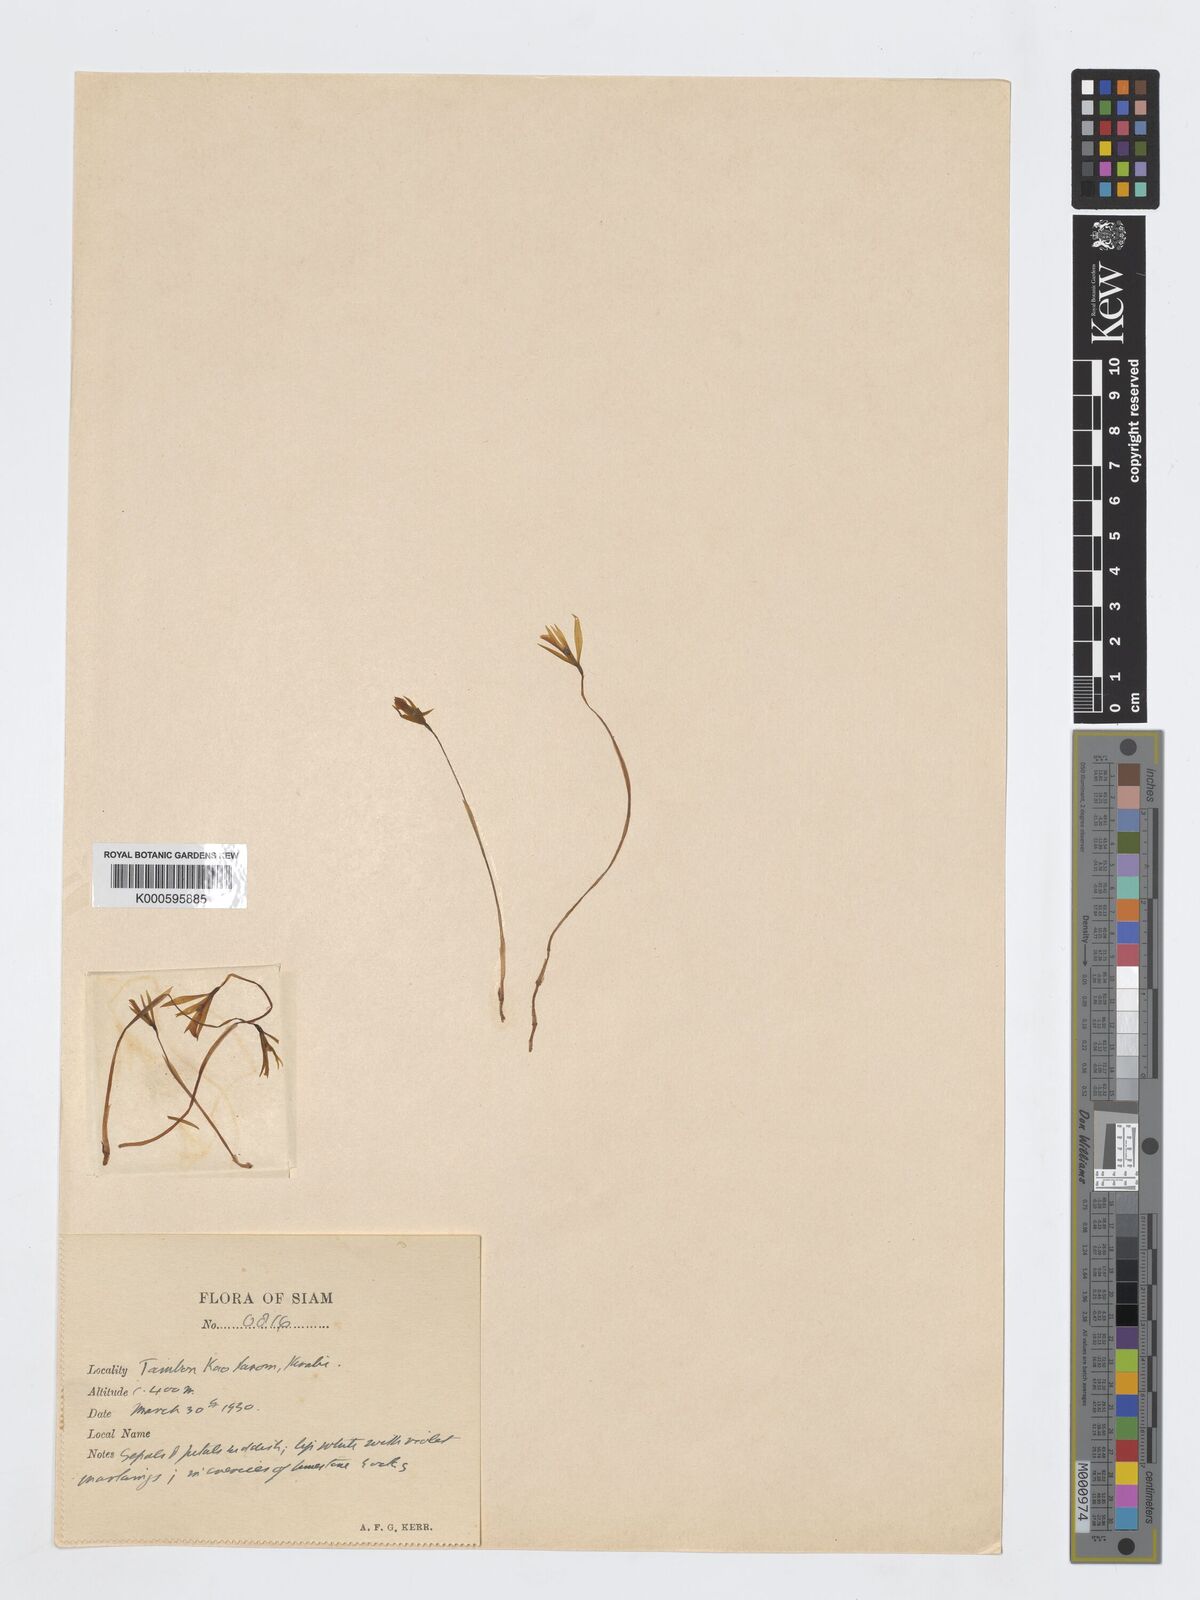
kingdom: Plantae
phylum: Tracheophyta
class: Liliopsida
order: Asparagales
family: Orchidaceae
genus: Nervilia
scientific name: Nervilia
